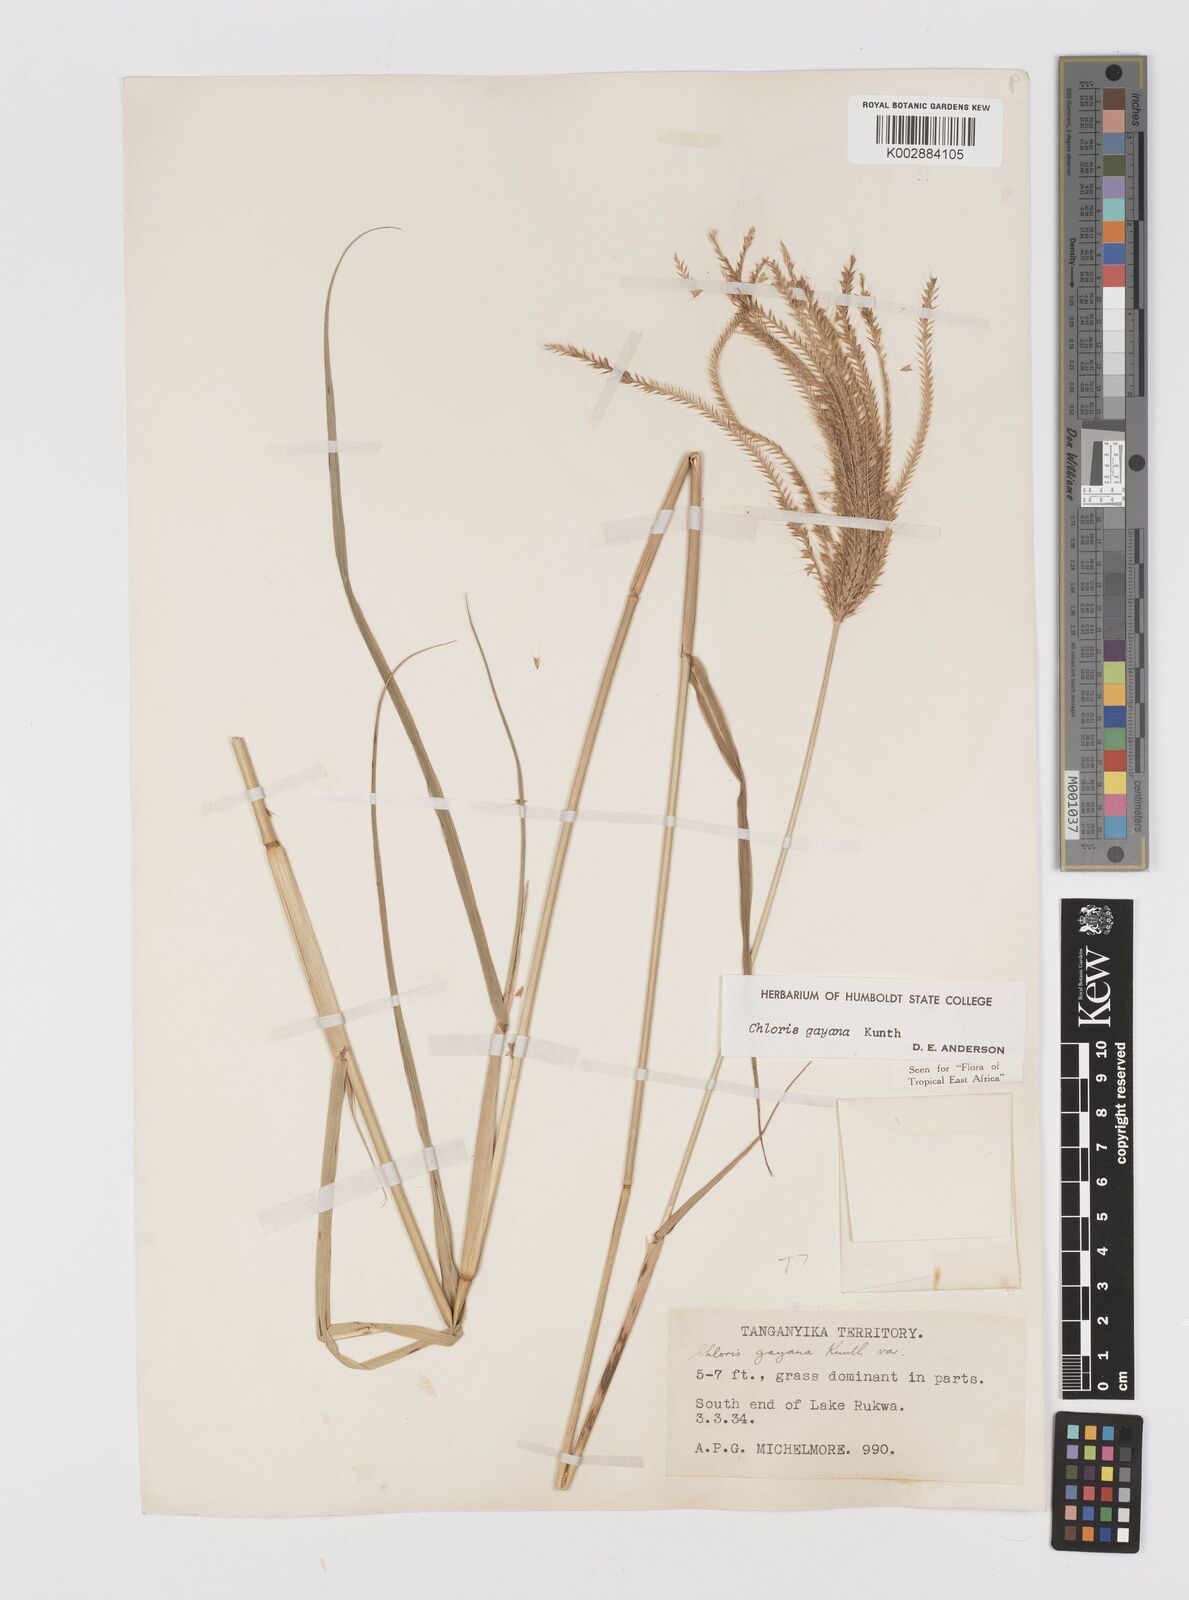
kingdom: Plantae
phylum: Tracheophyta
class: Liliopsida
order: Poales
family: Poaceae
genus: Chloris
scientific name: Chloris gayana
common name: Rhodes grass
